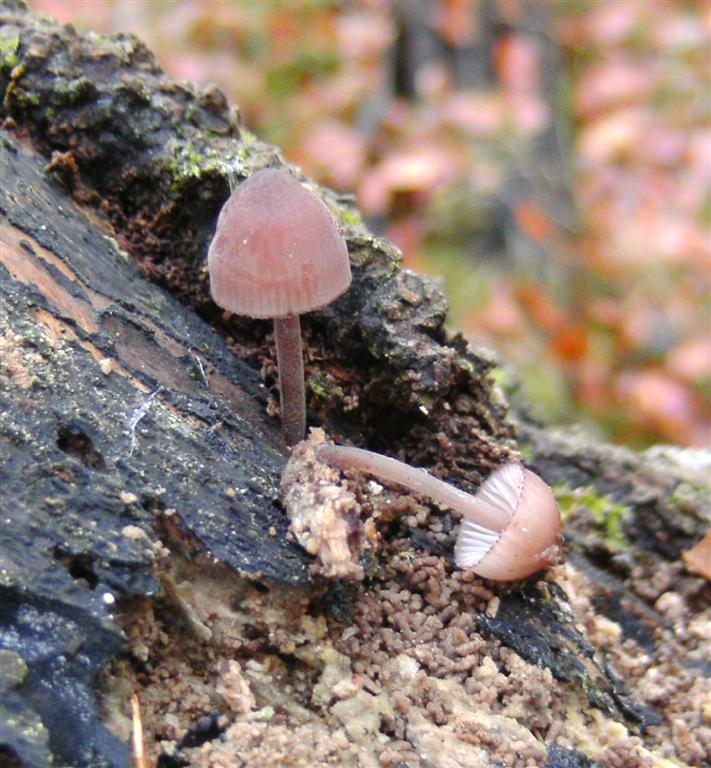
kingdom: Fungi
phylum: Basidiomycota
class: Agaricomycetes
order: Agaricales
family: Mycenaceae
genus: Mycena
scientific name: Mycena haematopus
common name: blødende huesvamp
